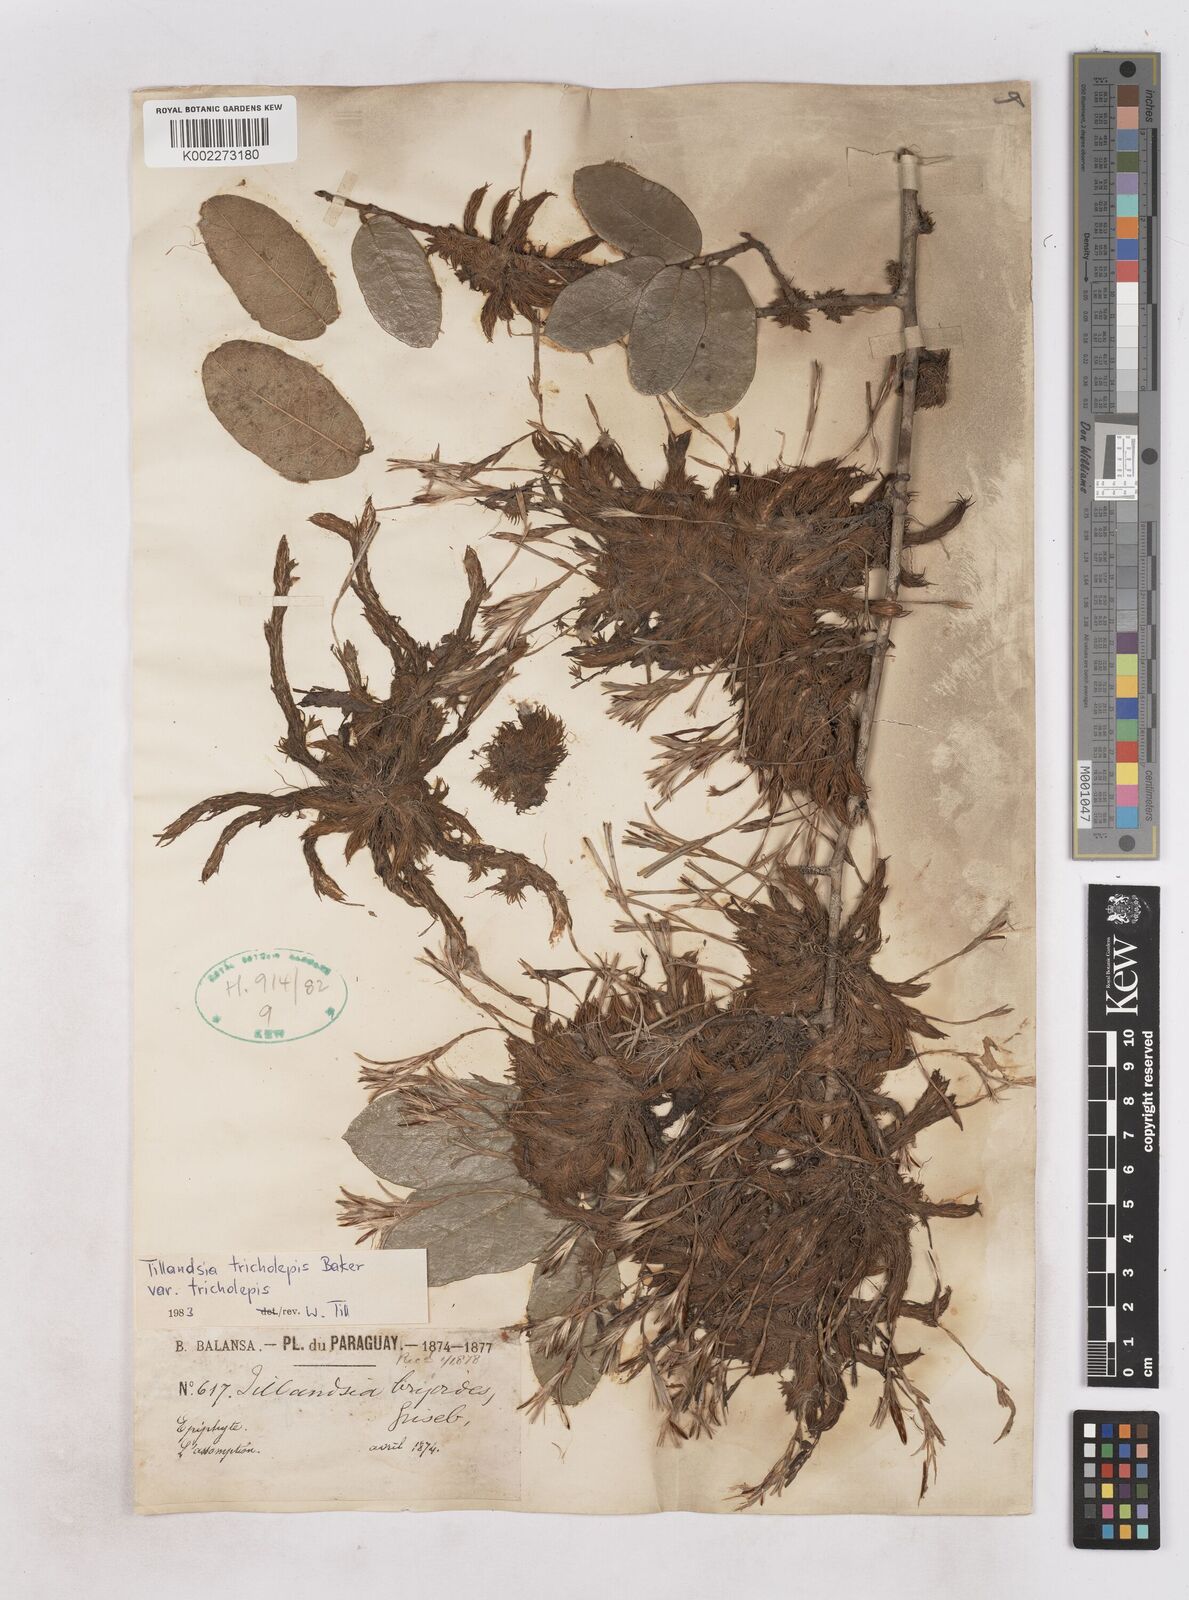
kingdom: Plantae
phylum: Tracheophyta
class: Liliopsida
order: Poales
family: Bromeliaceae
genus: Tillandsia
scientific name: Tillandsia tricholepis
